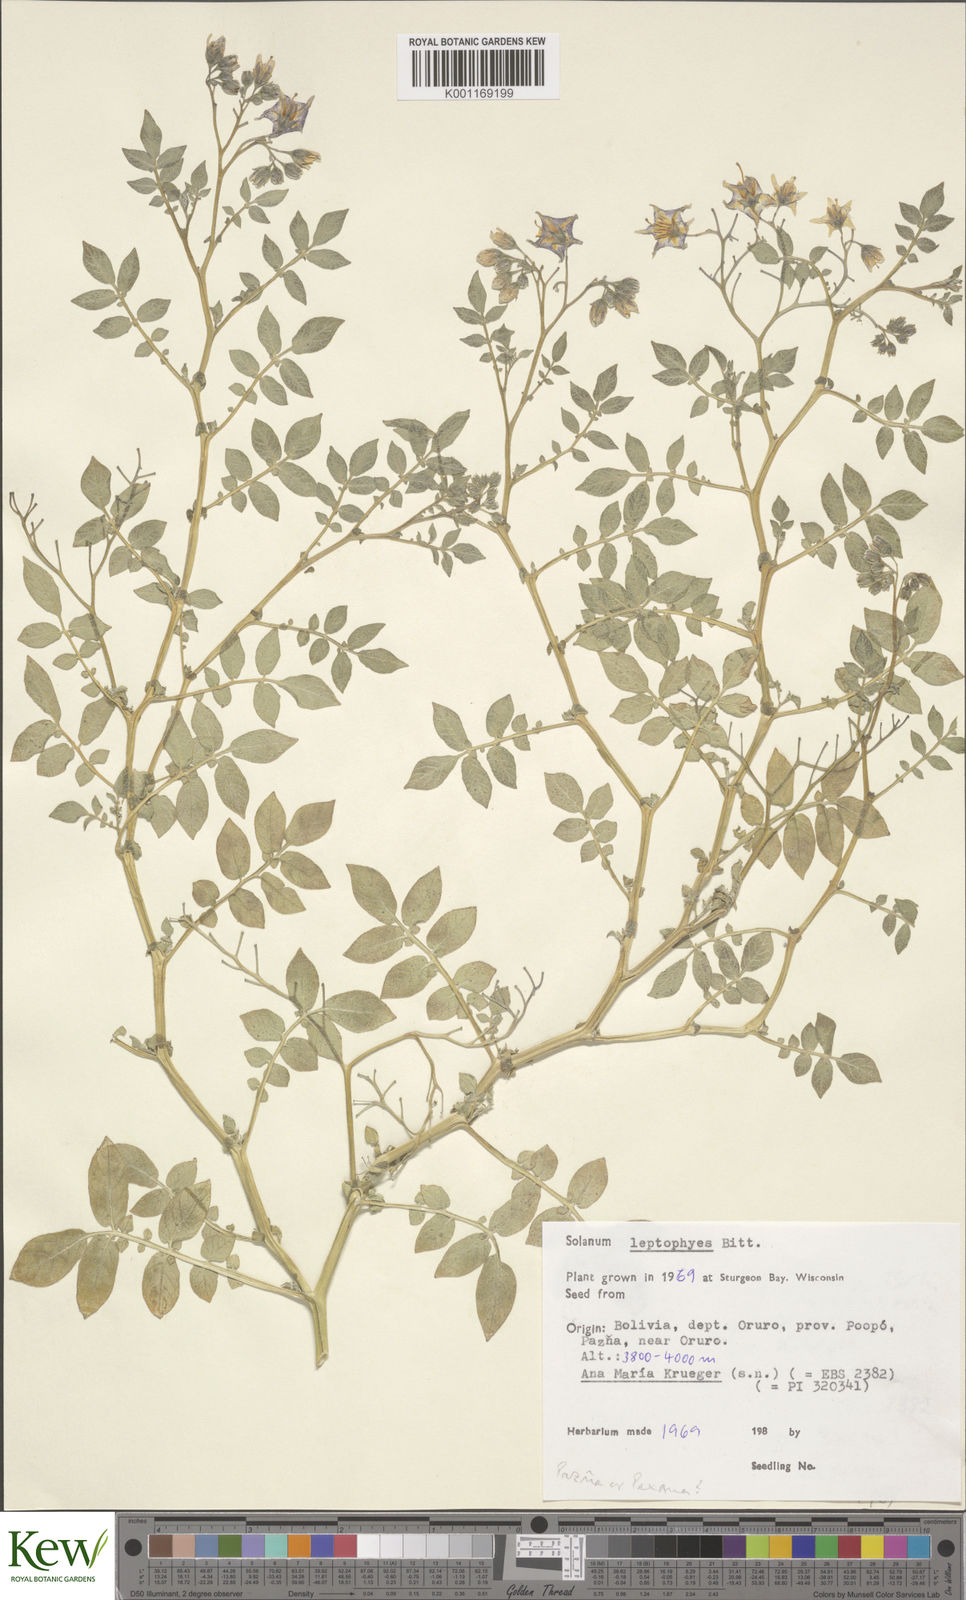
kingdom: Plantae
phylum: Tracheophyta
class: Magnoliopsida
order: Solanales
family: Solanaceae
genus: Solanum
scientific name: Solanum brevicaule
